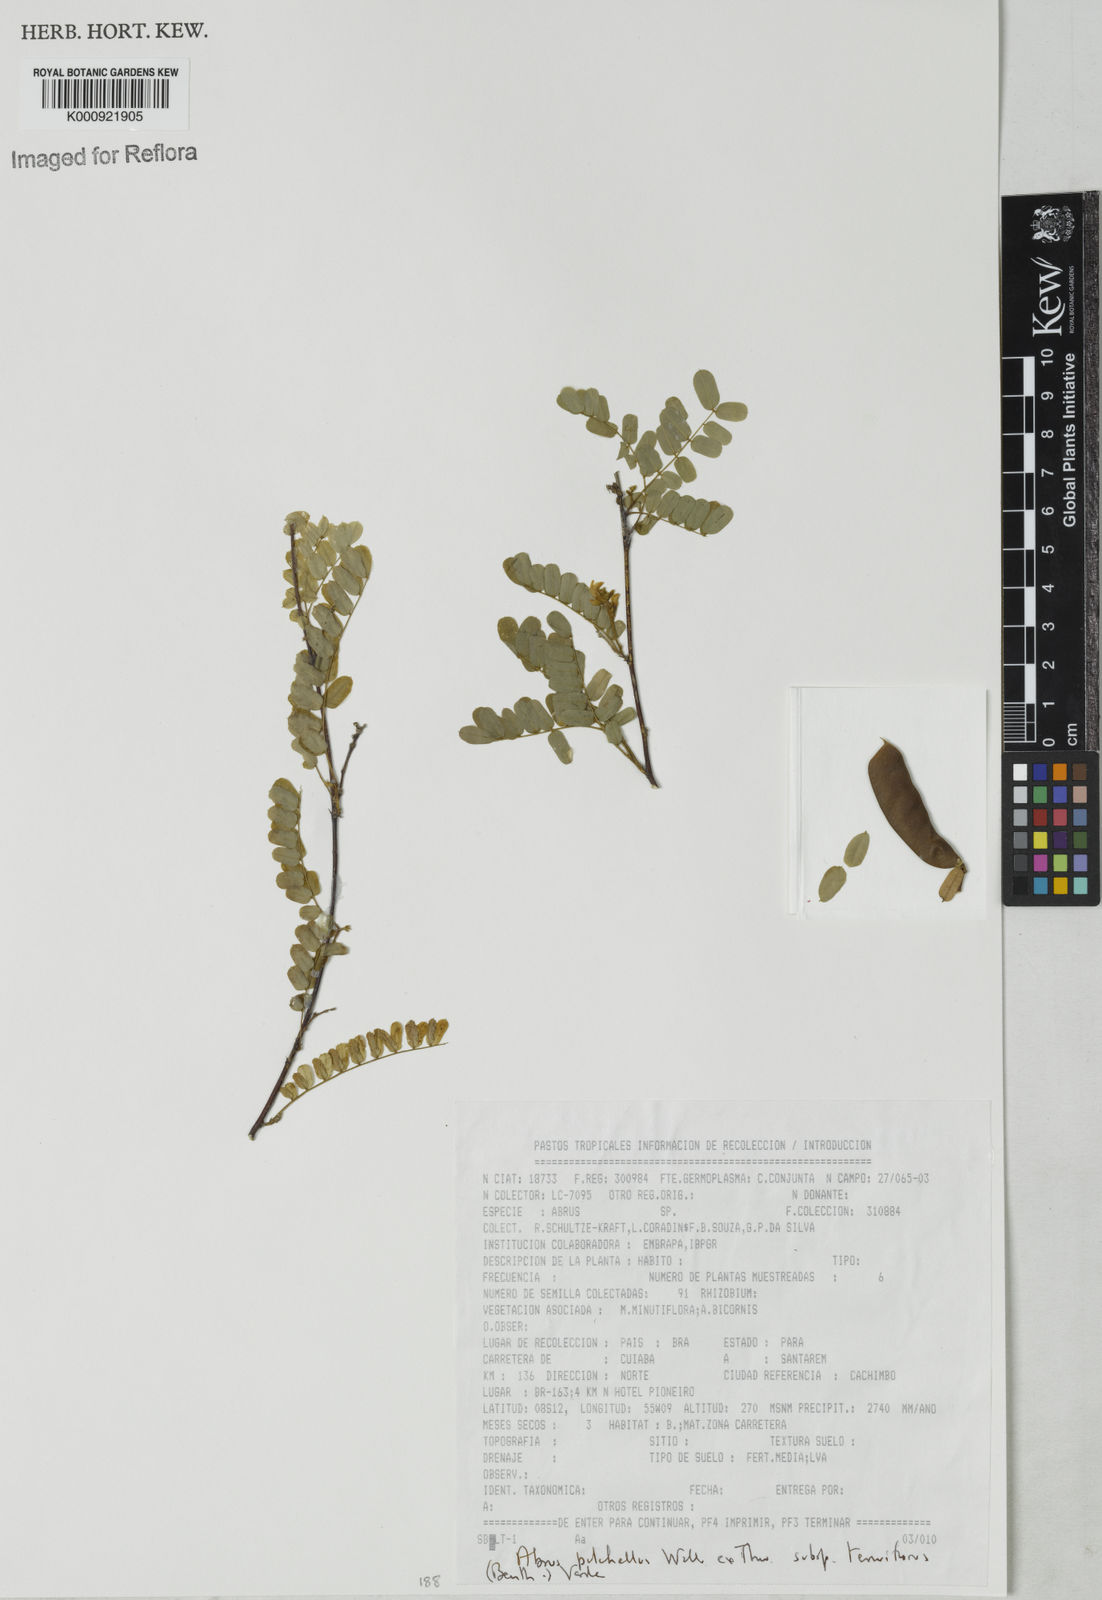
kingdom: Plantae
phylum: Tracheophyta
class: Magnoliopsida
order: Fabales
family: Fabaceae
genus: Abrus
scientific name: Abrus melanospermus
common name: Licorice-root
